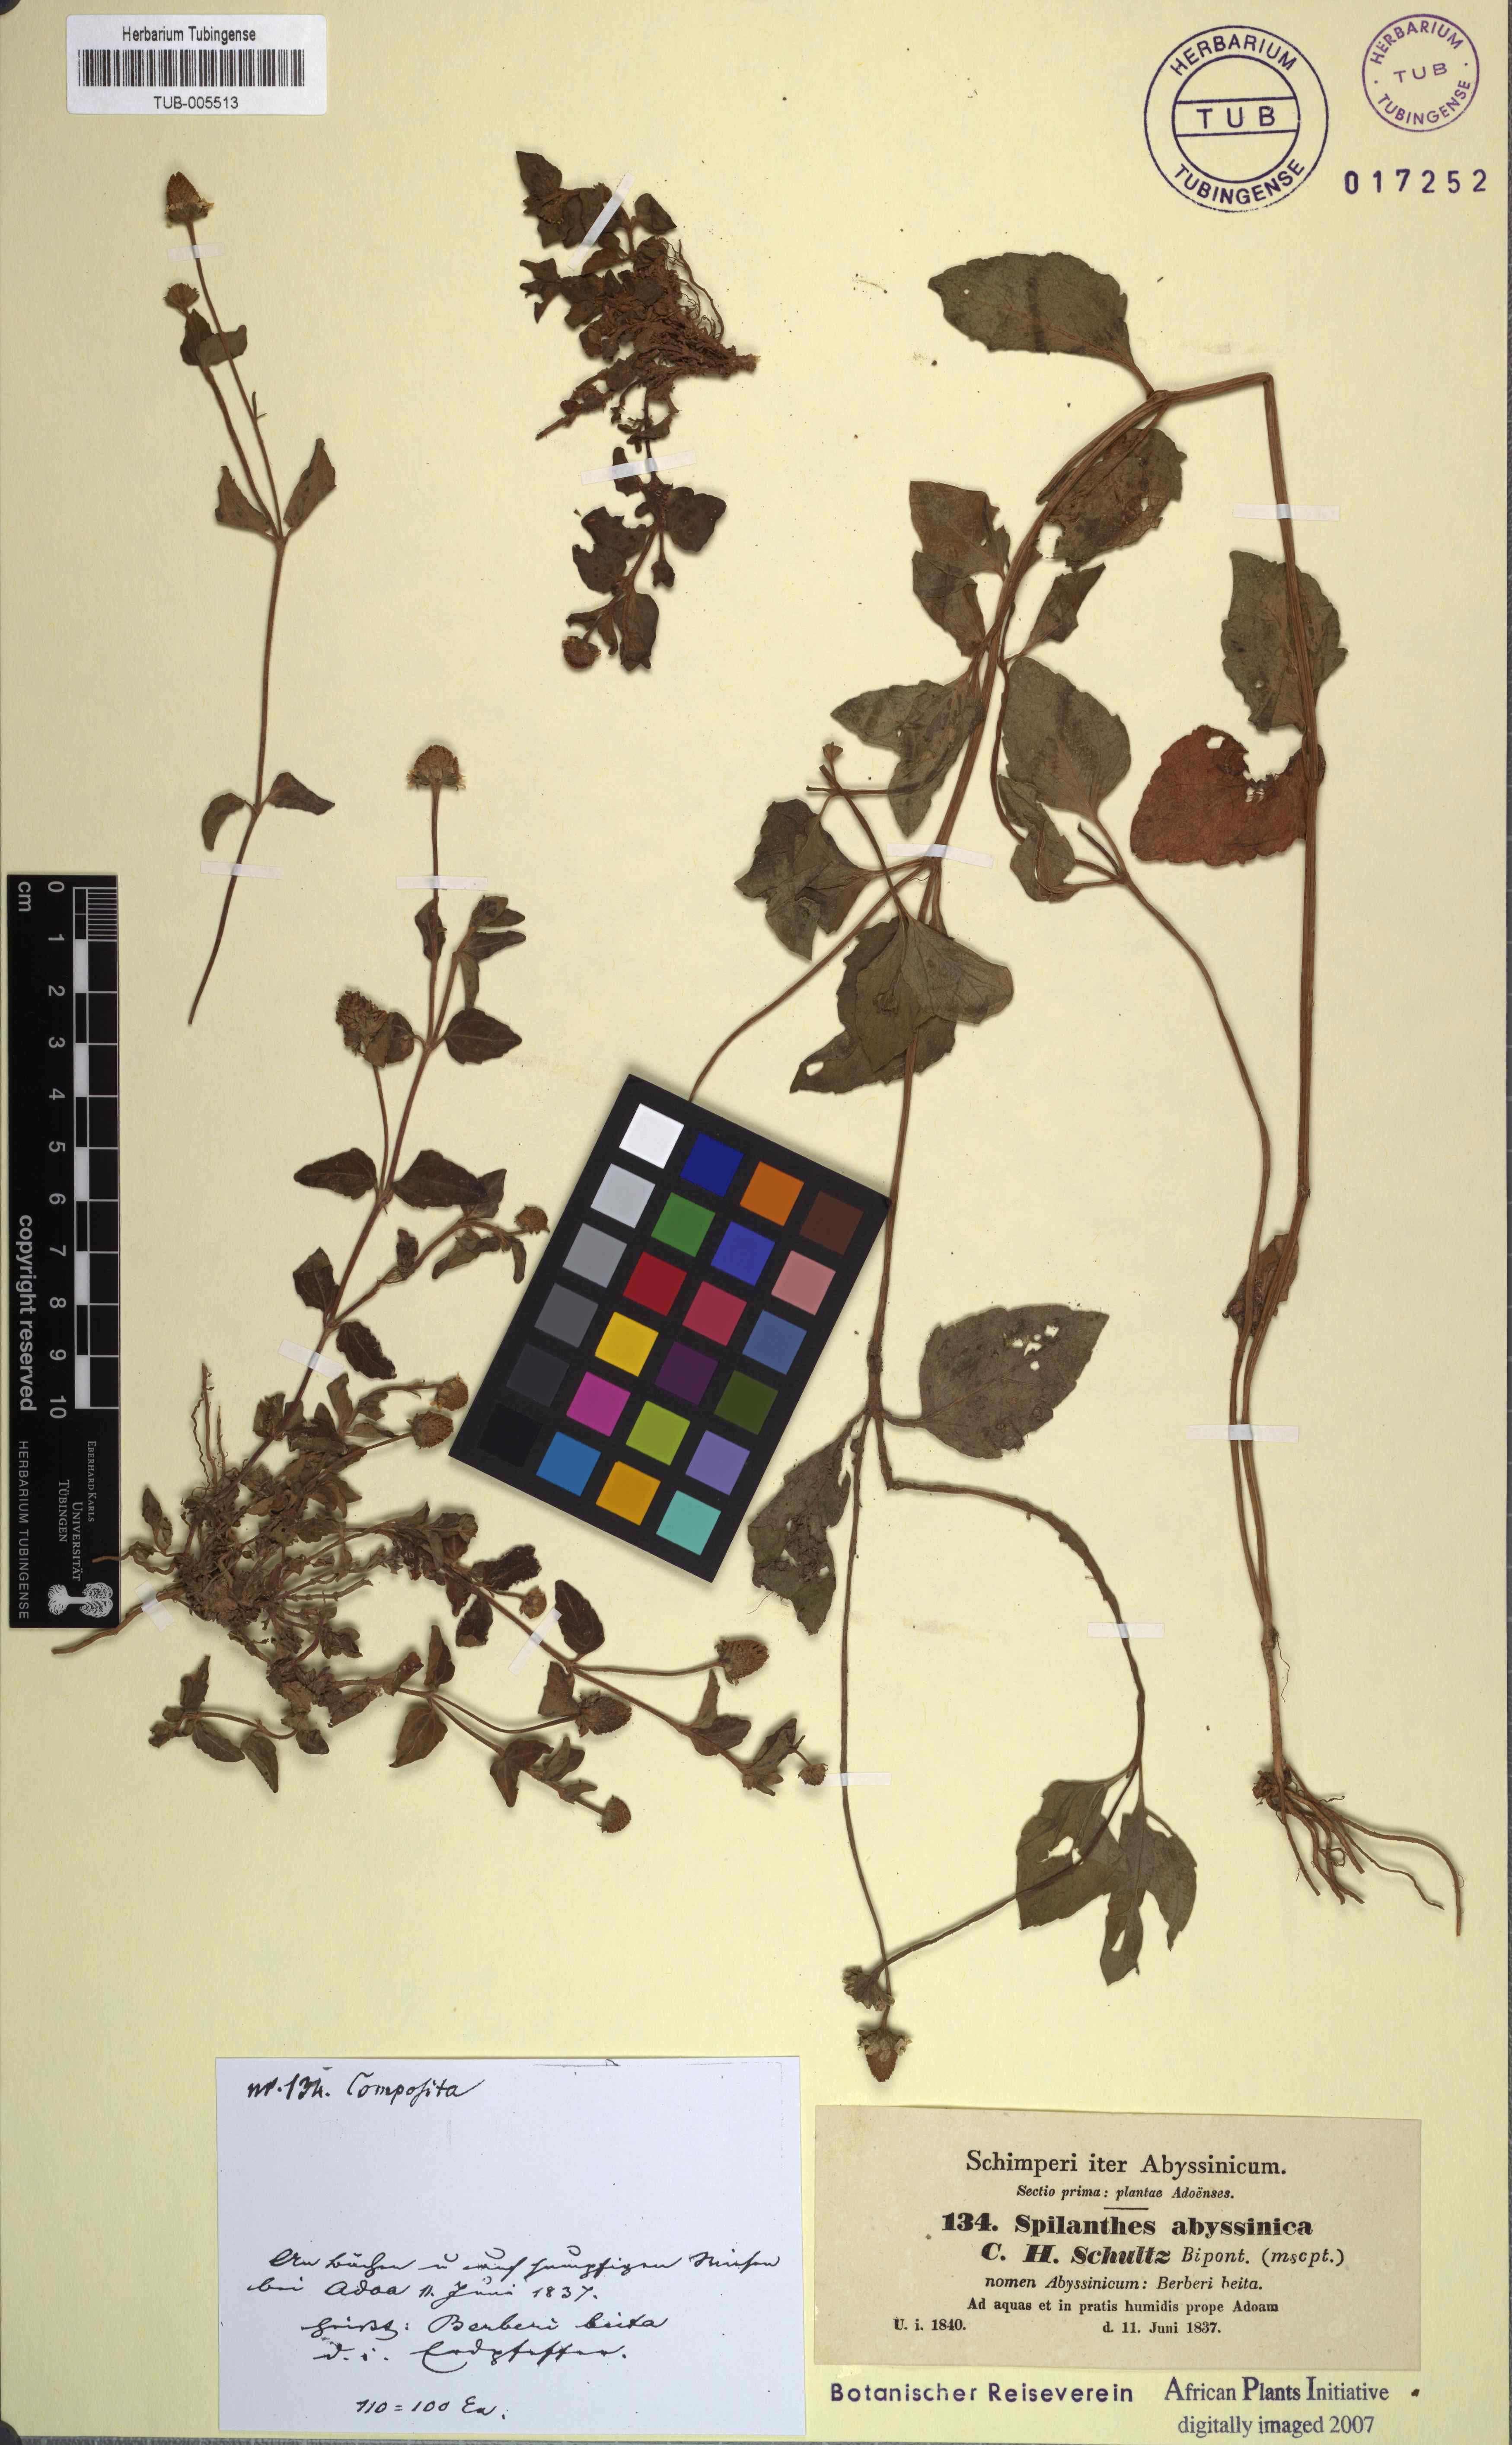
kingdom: Plantae
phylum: Tracheophyta
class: Magnoliopsida
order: Asterales
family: Asteraceae
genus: Blainvillea
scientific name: Blainvillea acmella
